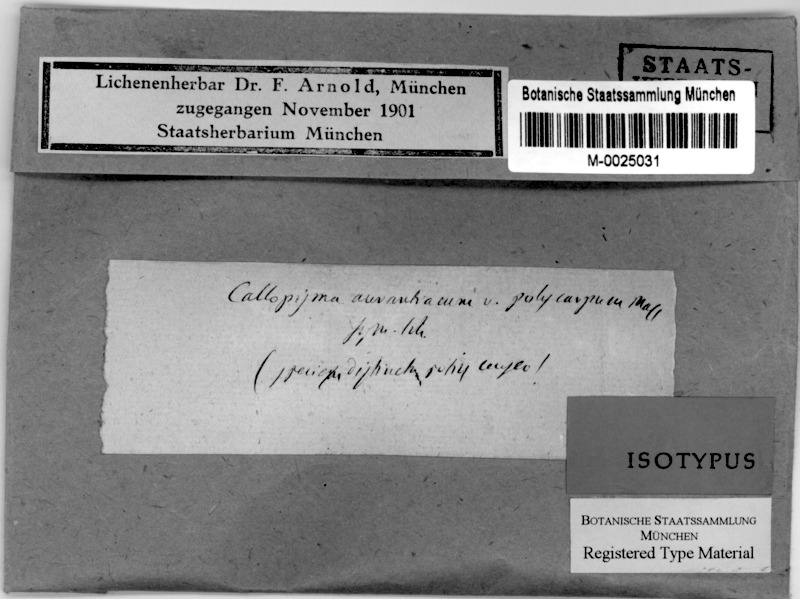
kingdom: Fungi
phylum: Ascomycota
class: Lecanoromycetes
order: Teloschistales
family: Teloschistaceae
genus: Flavoplaca
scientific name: Flavoplaca polycarpa
